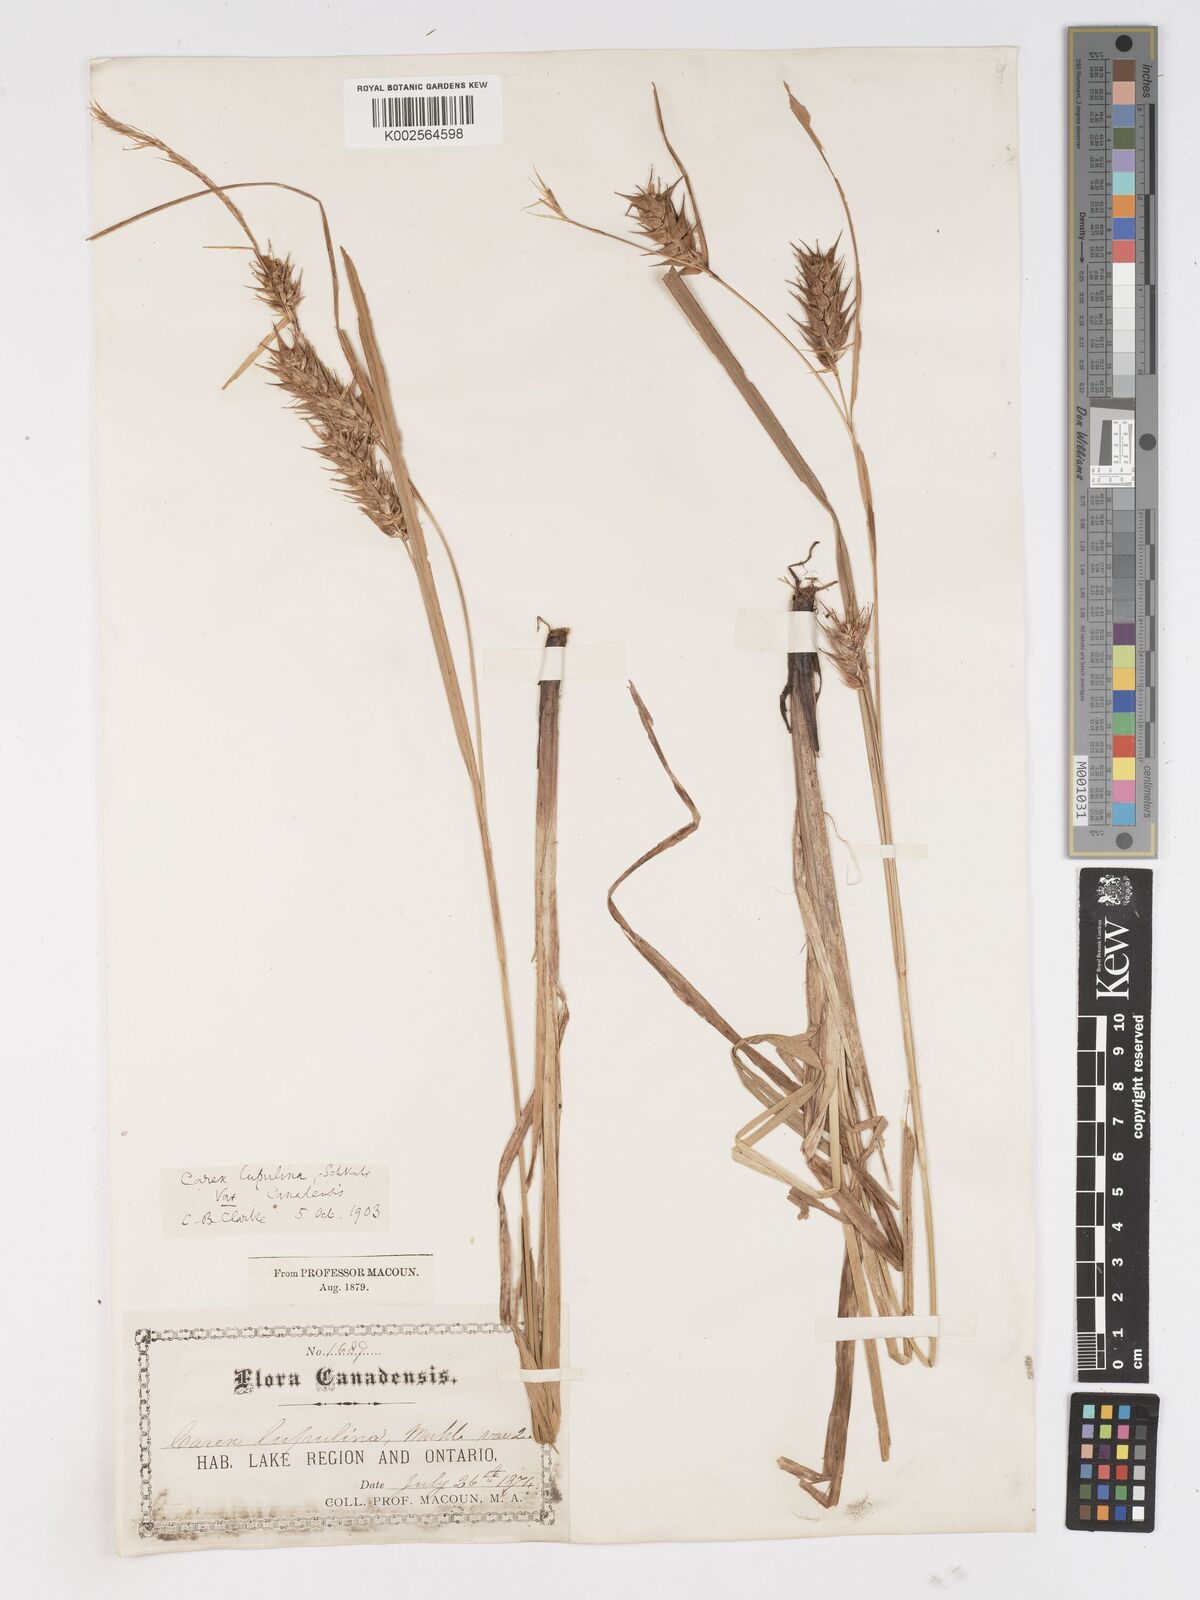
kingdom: Plantae
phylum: Tracheophyta
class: Liliopsida
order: Poales
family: Cyperaceae
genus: Carex
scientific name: Carex lupulina
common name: Hop sedge
